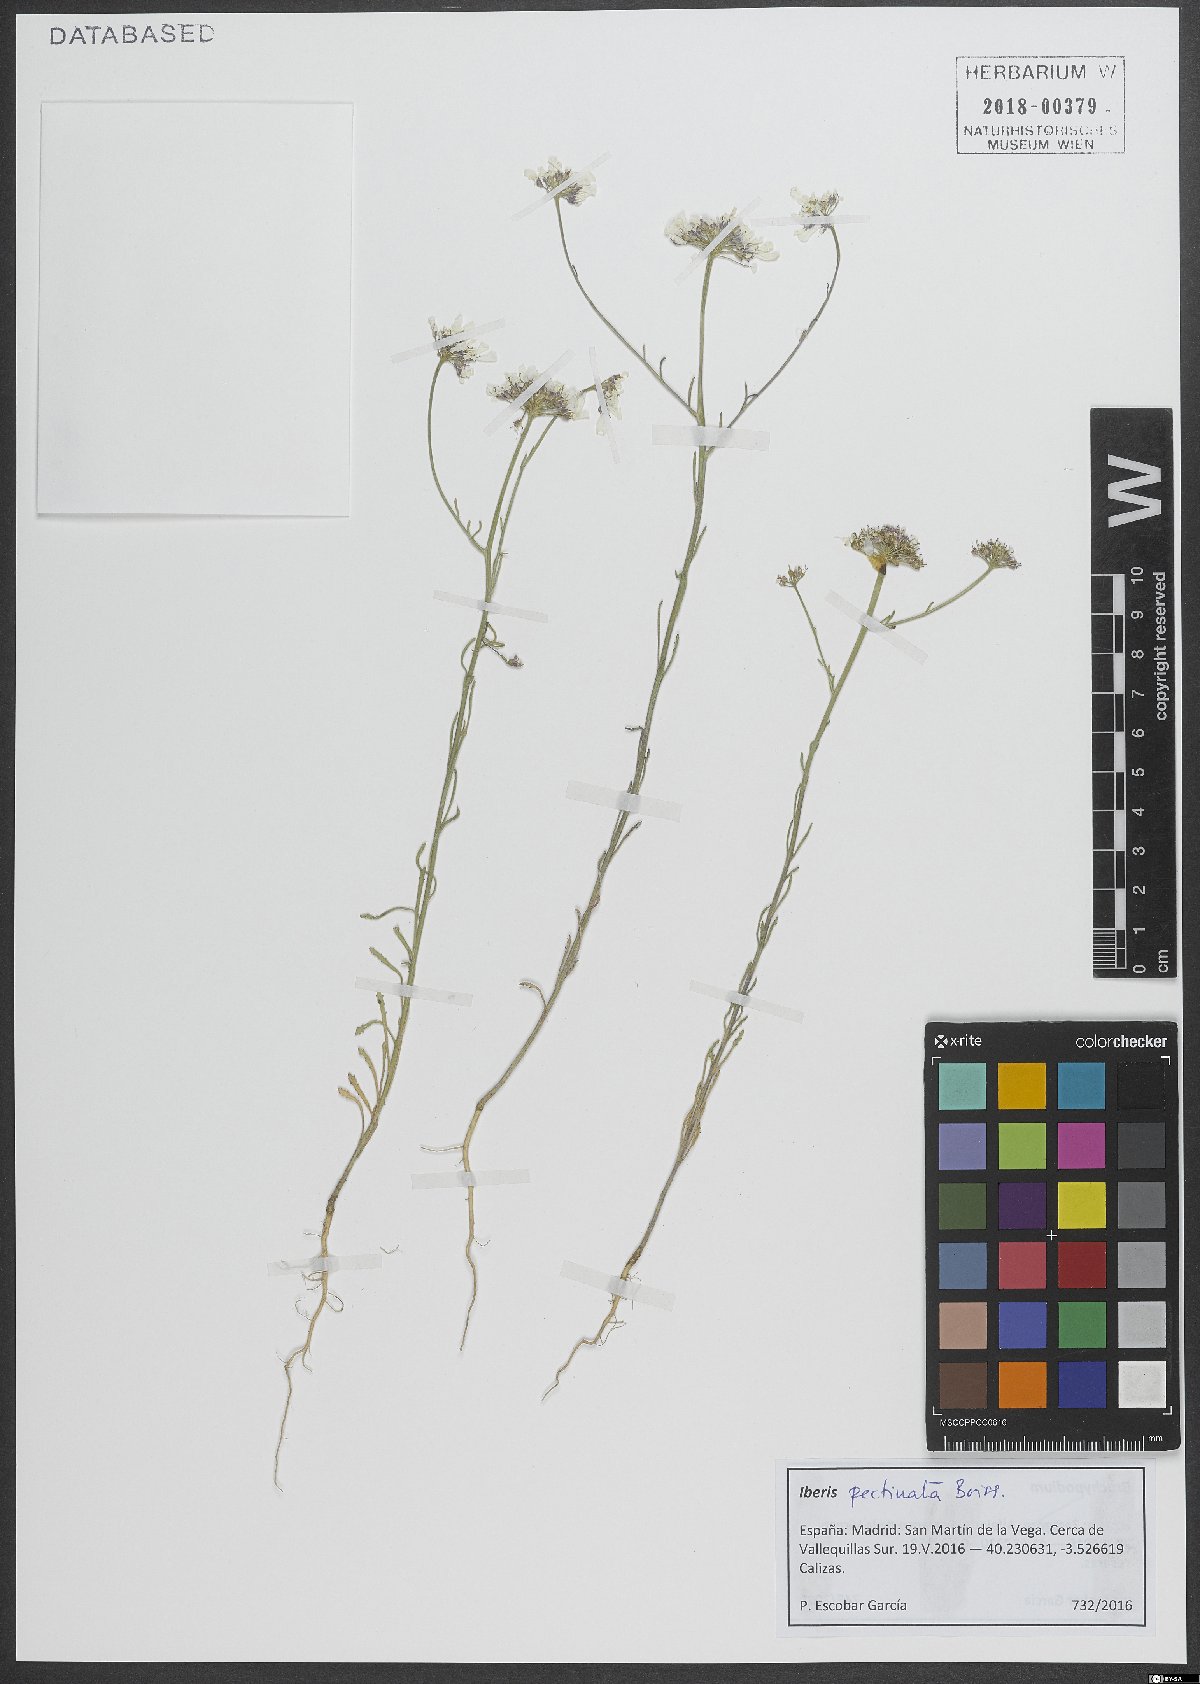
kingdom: Plantae
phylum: Tracheophyta
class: Magnoliopsida
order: Brassicales
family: Brassicaceae
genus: Iberis
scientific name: Iberis pectinata
